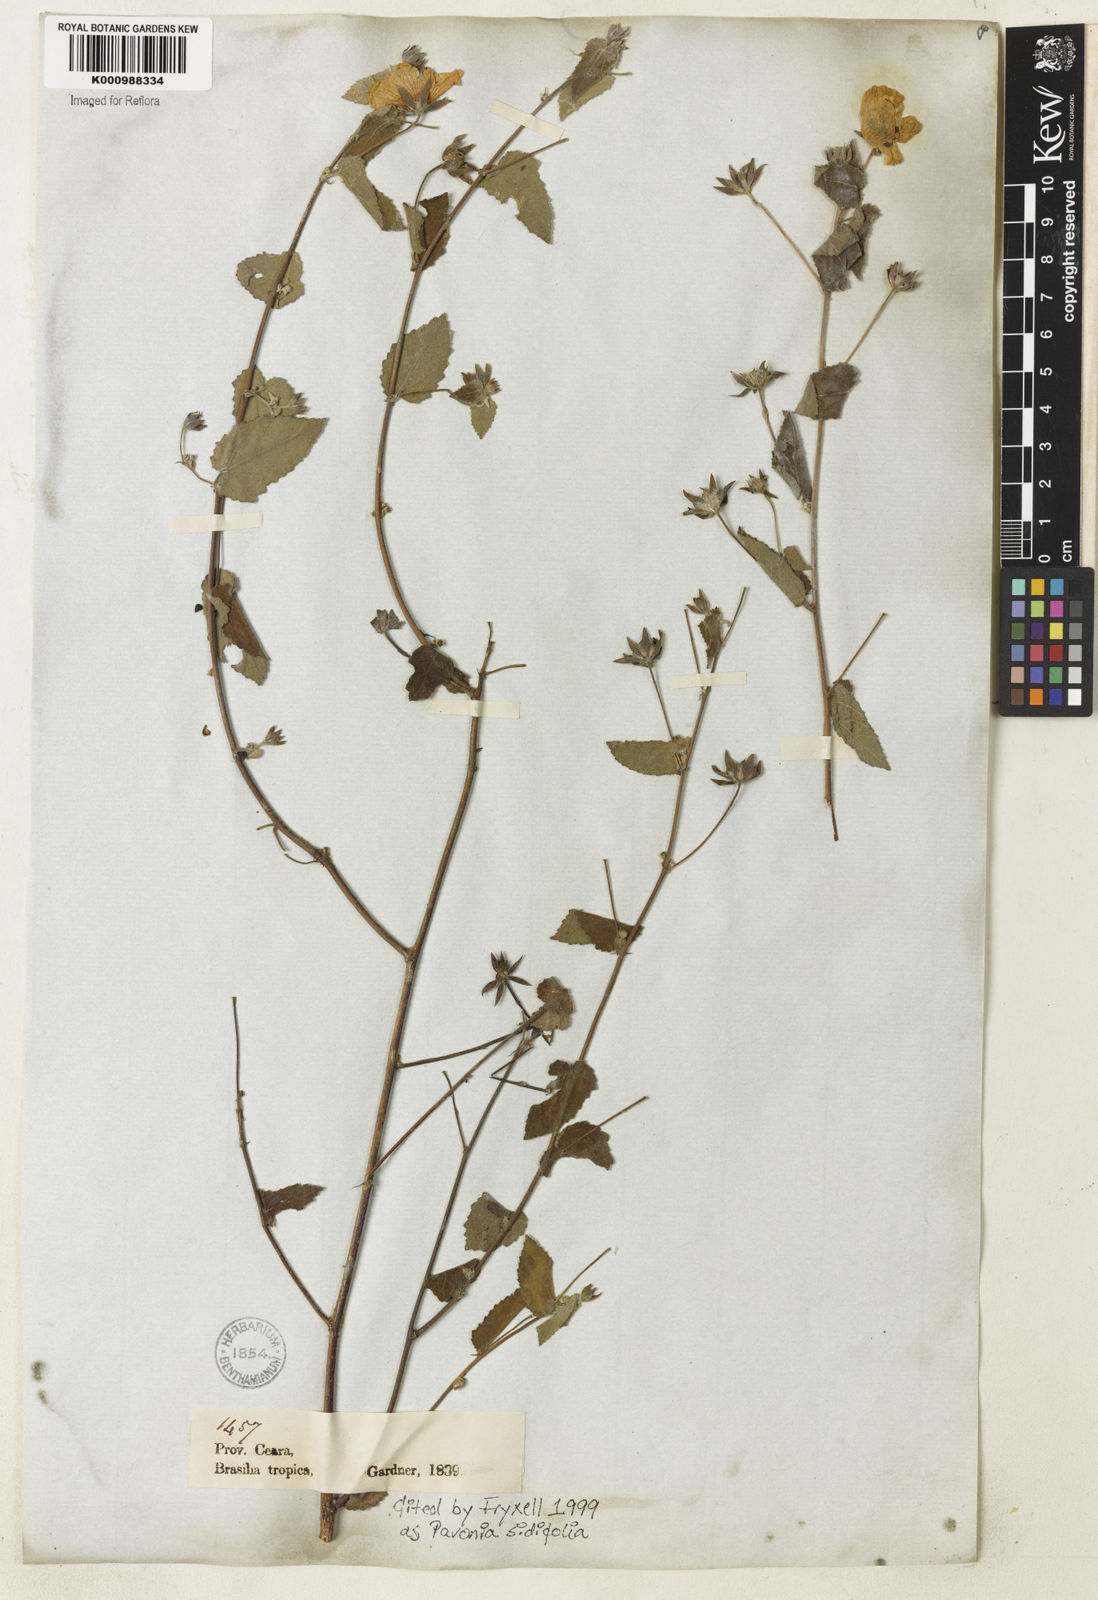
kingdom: Plantae
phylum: Tracheophyta
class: Magnoliopsida
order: Malvales
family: Malvaceae
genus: Pavonia
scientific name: Pavonia sidifolia
